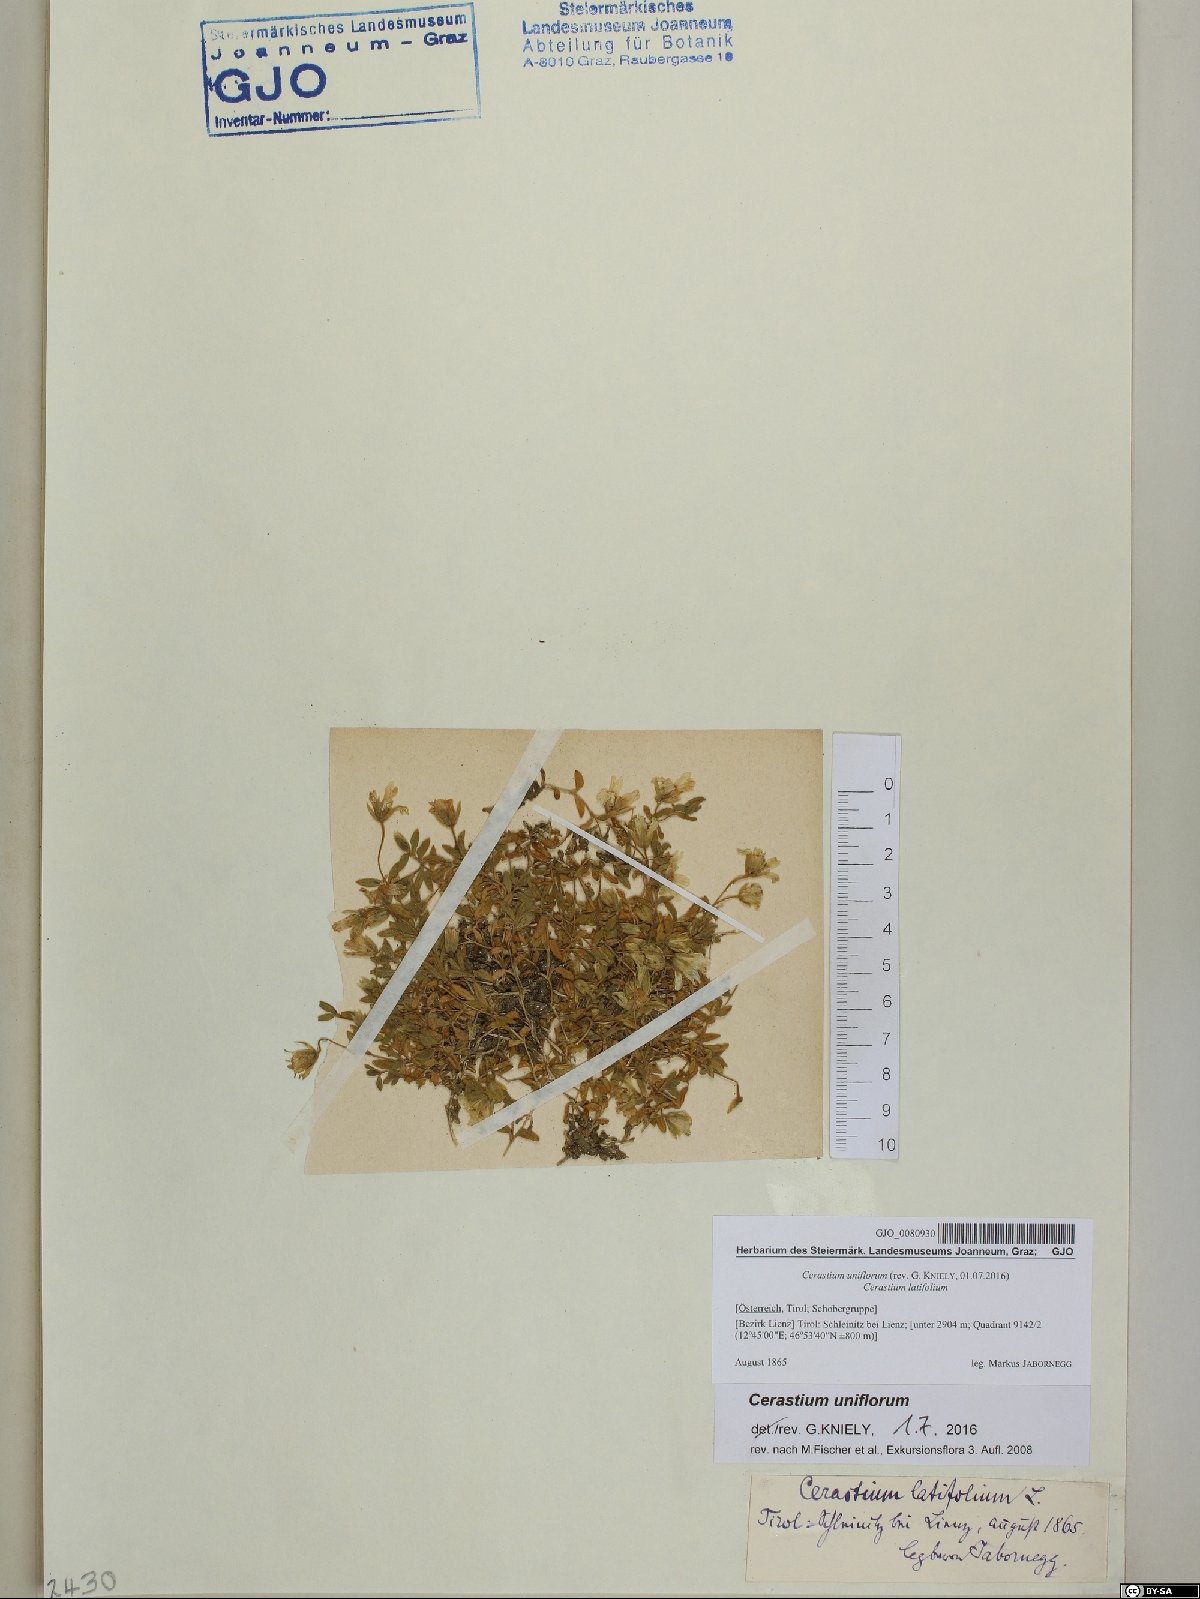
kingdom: Plantae
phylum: Tracheophyta
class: Magnoliopsida
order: Caryophyllales
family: Caryophyllaceae
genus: Cerastium
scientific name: Cerastium uniflorum
